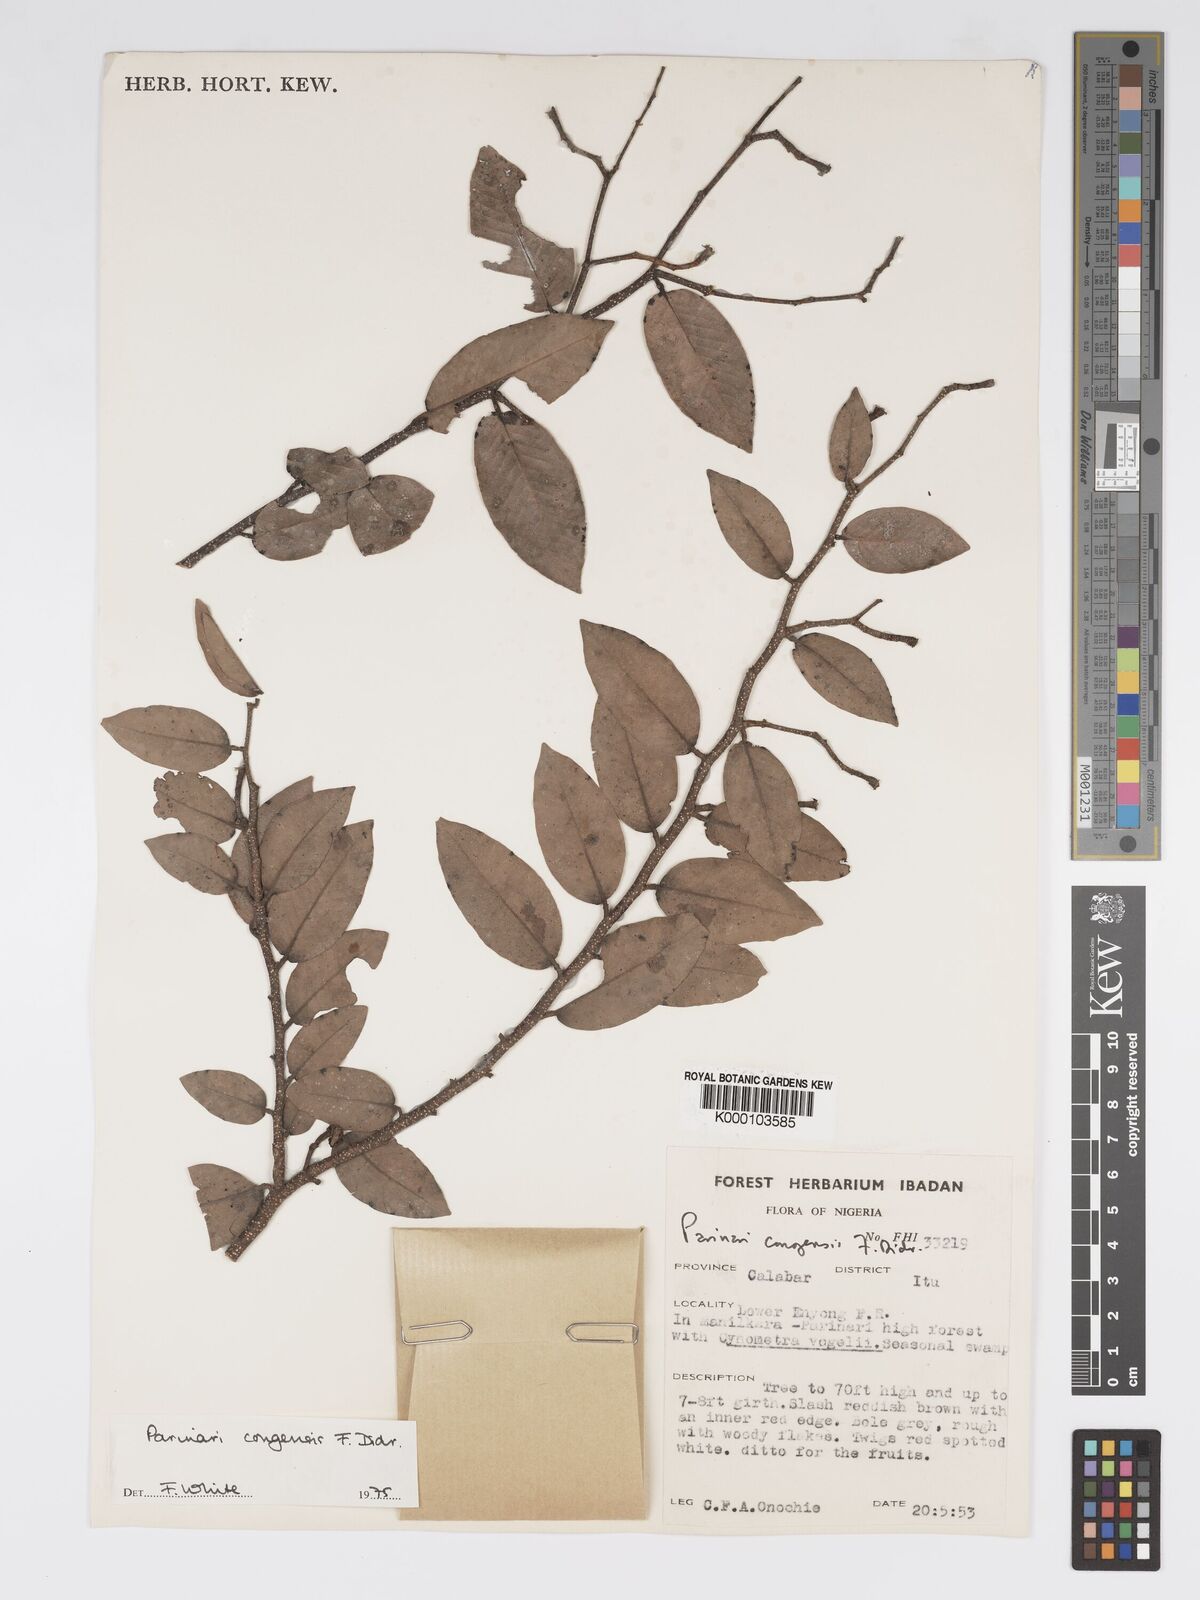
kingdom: Plantae
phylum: Tracheophyta
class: Magnoliopsida
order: Malpighiales
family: Chrysobalanaceae
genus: Parinari
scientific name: Parinari congensis
